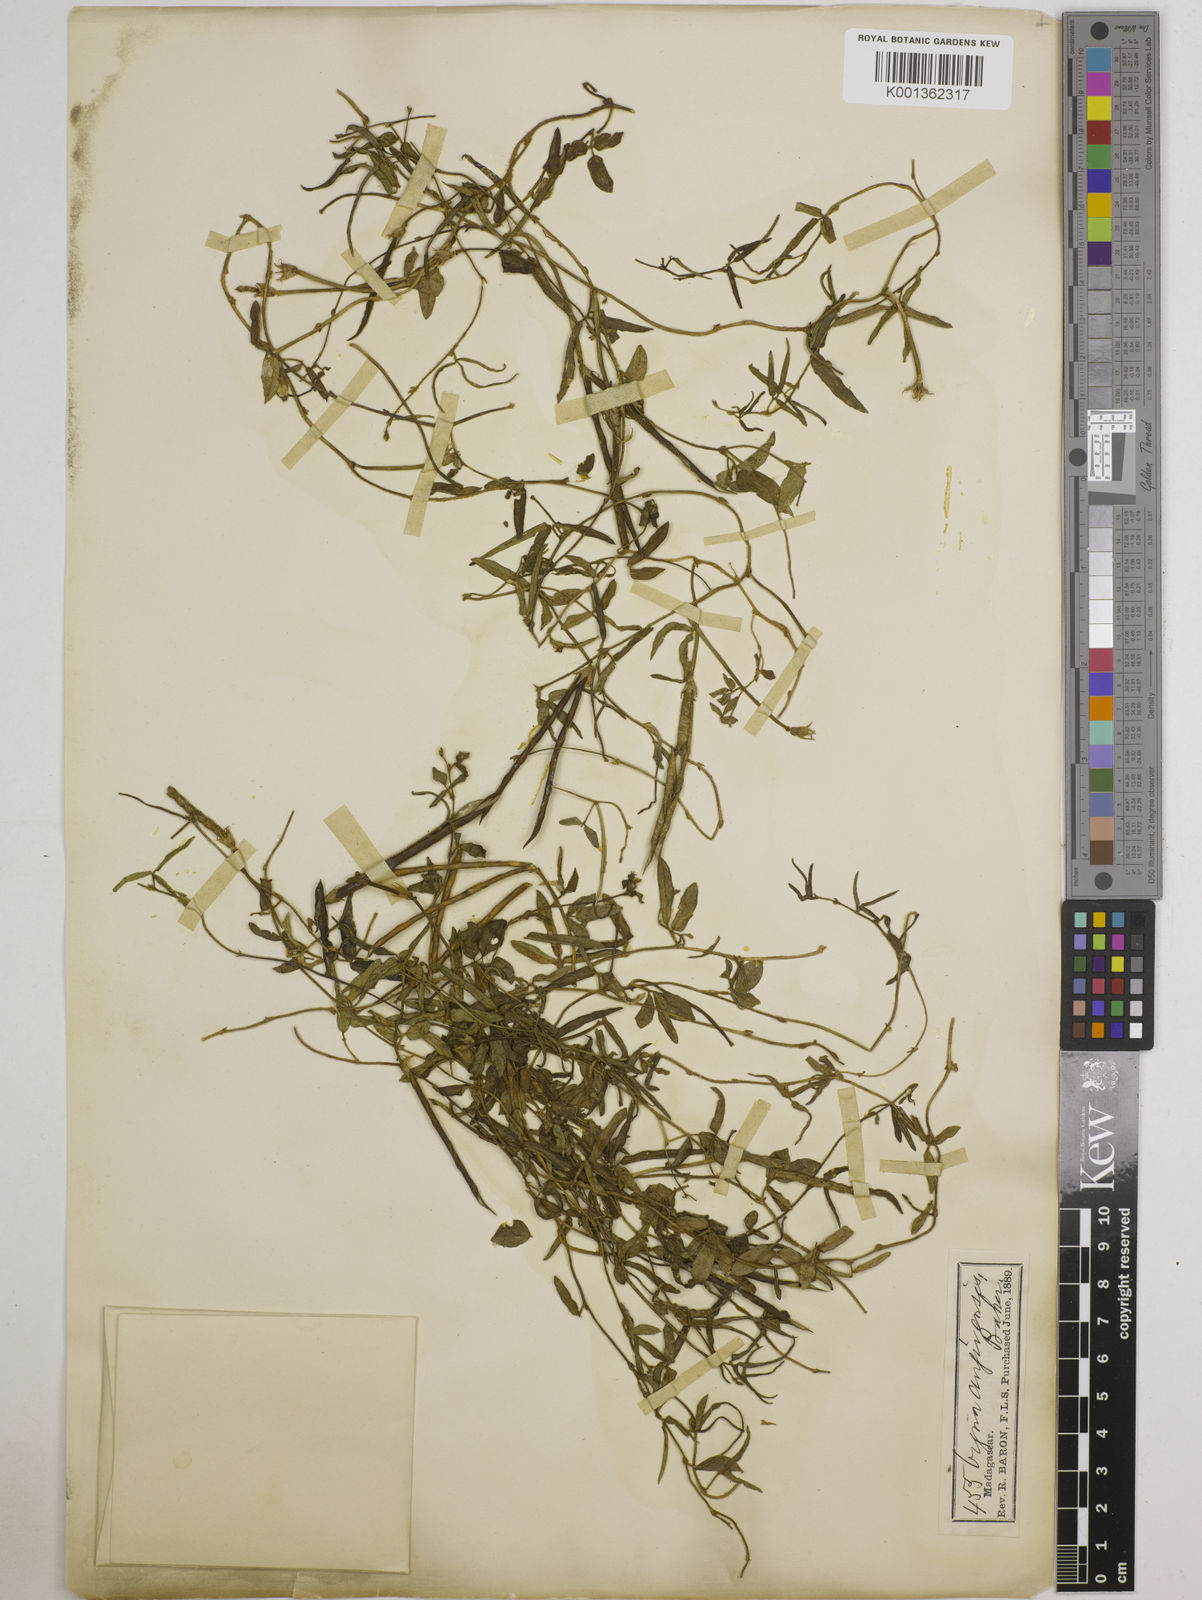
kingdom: Plantae
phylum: Tracheophyta
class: Magnoliopsida
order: Fabales
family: Fabaceae
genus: Vigna
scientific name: Vigna angivensis
